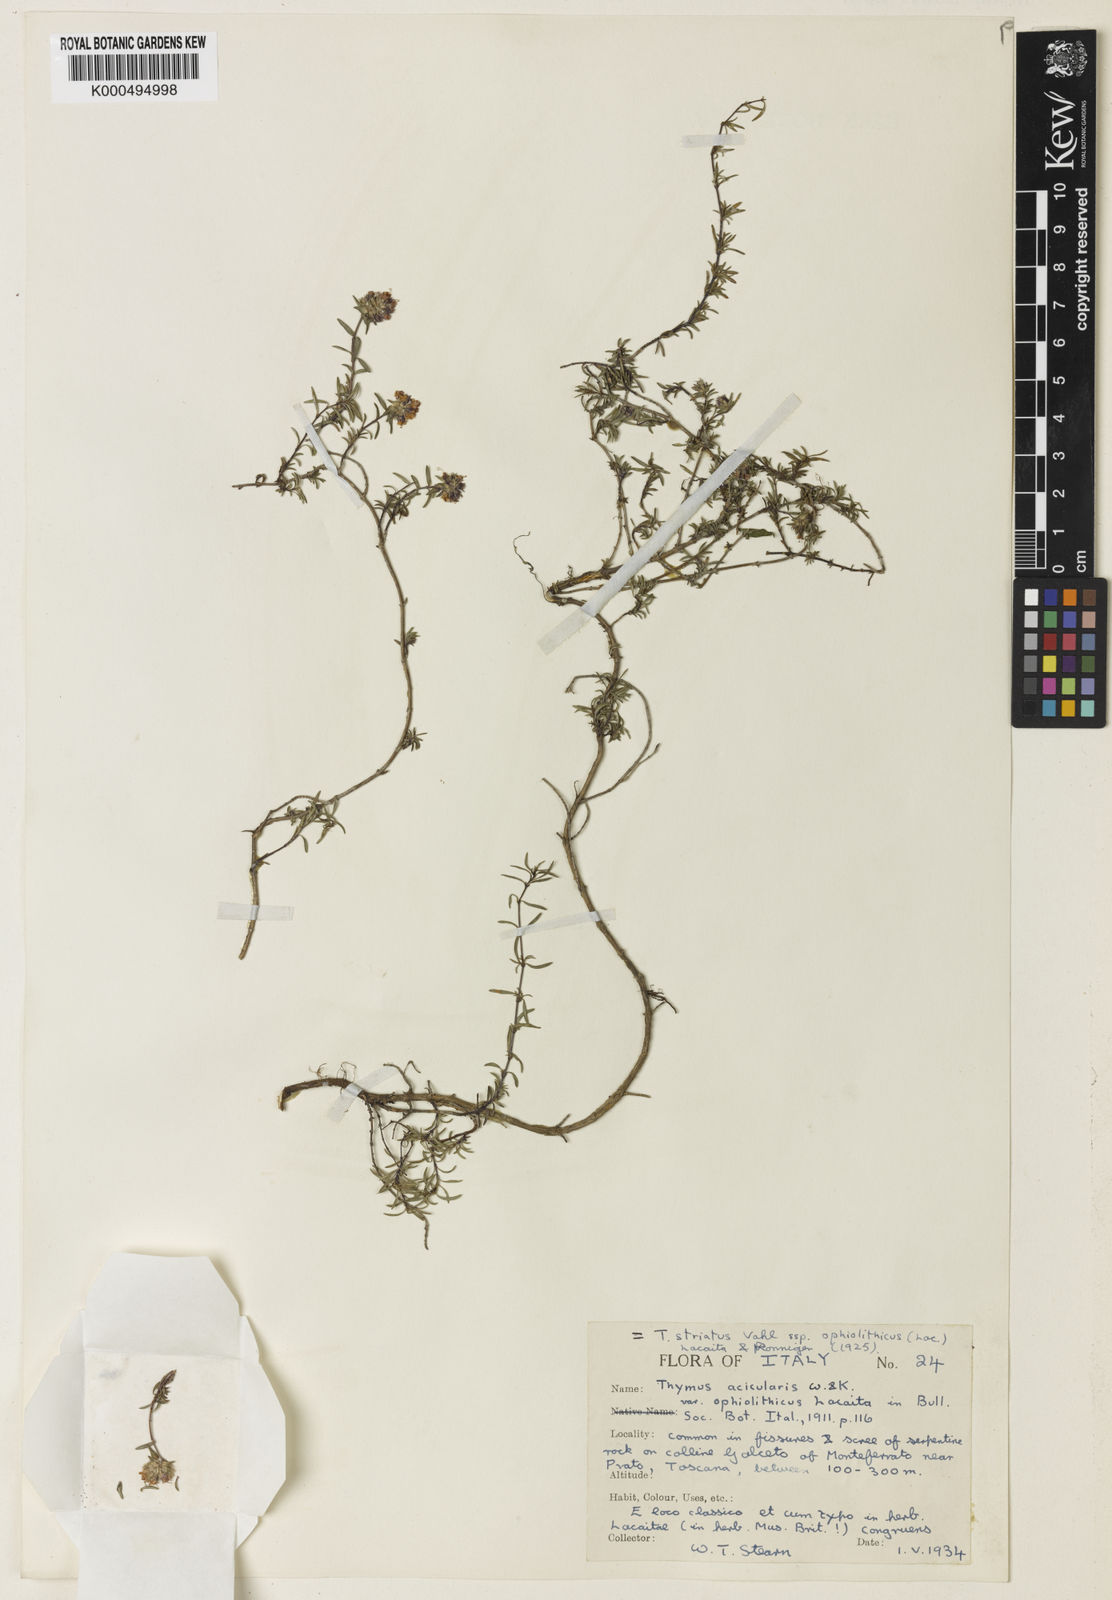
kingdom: Plantae
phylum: Tracheophyta
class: Magnoliopsida
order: Lamiales
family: Lamiaceae
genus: Thymus
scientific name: Thymus striatus
